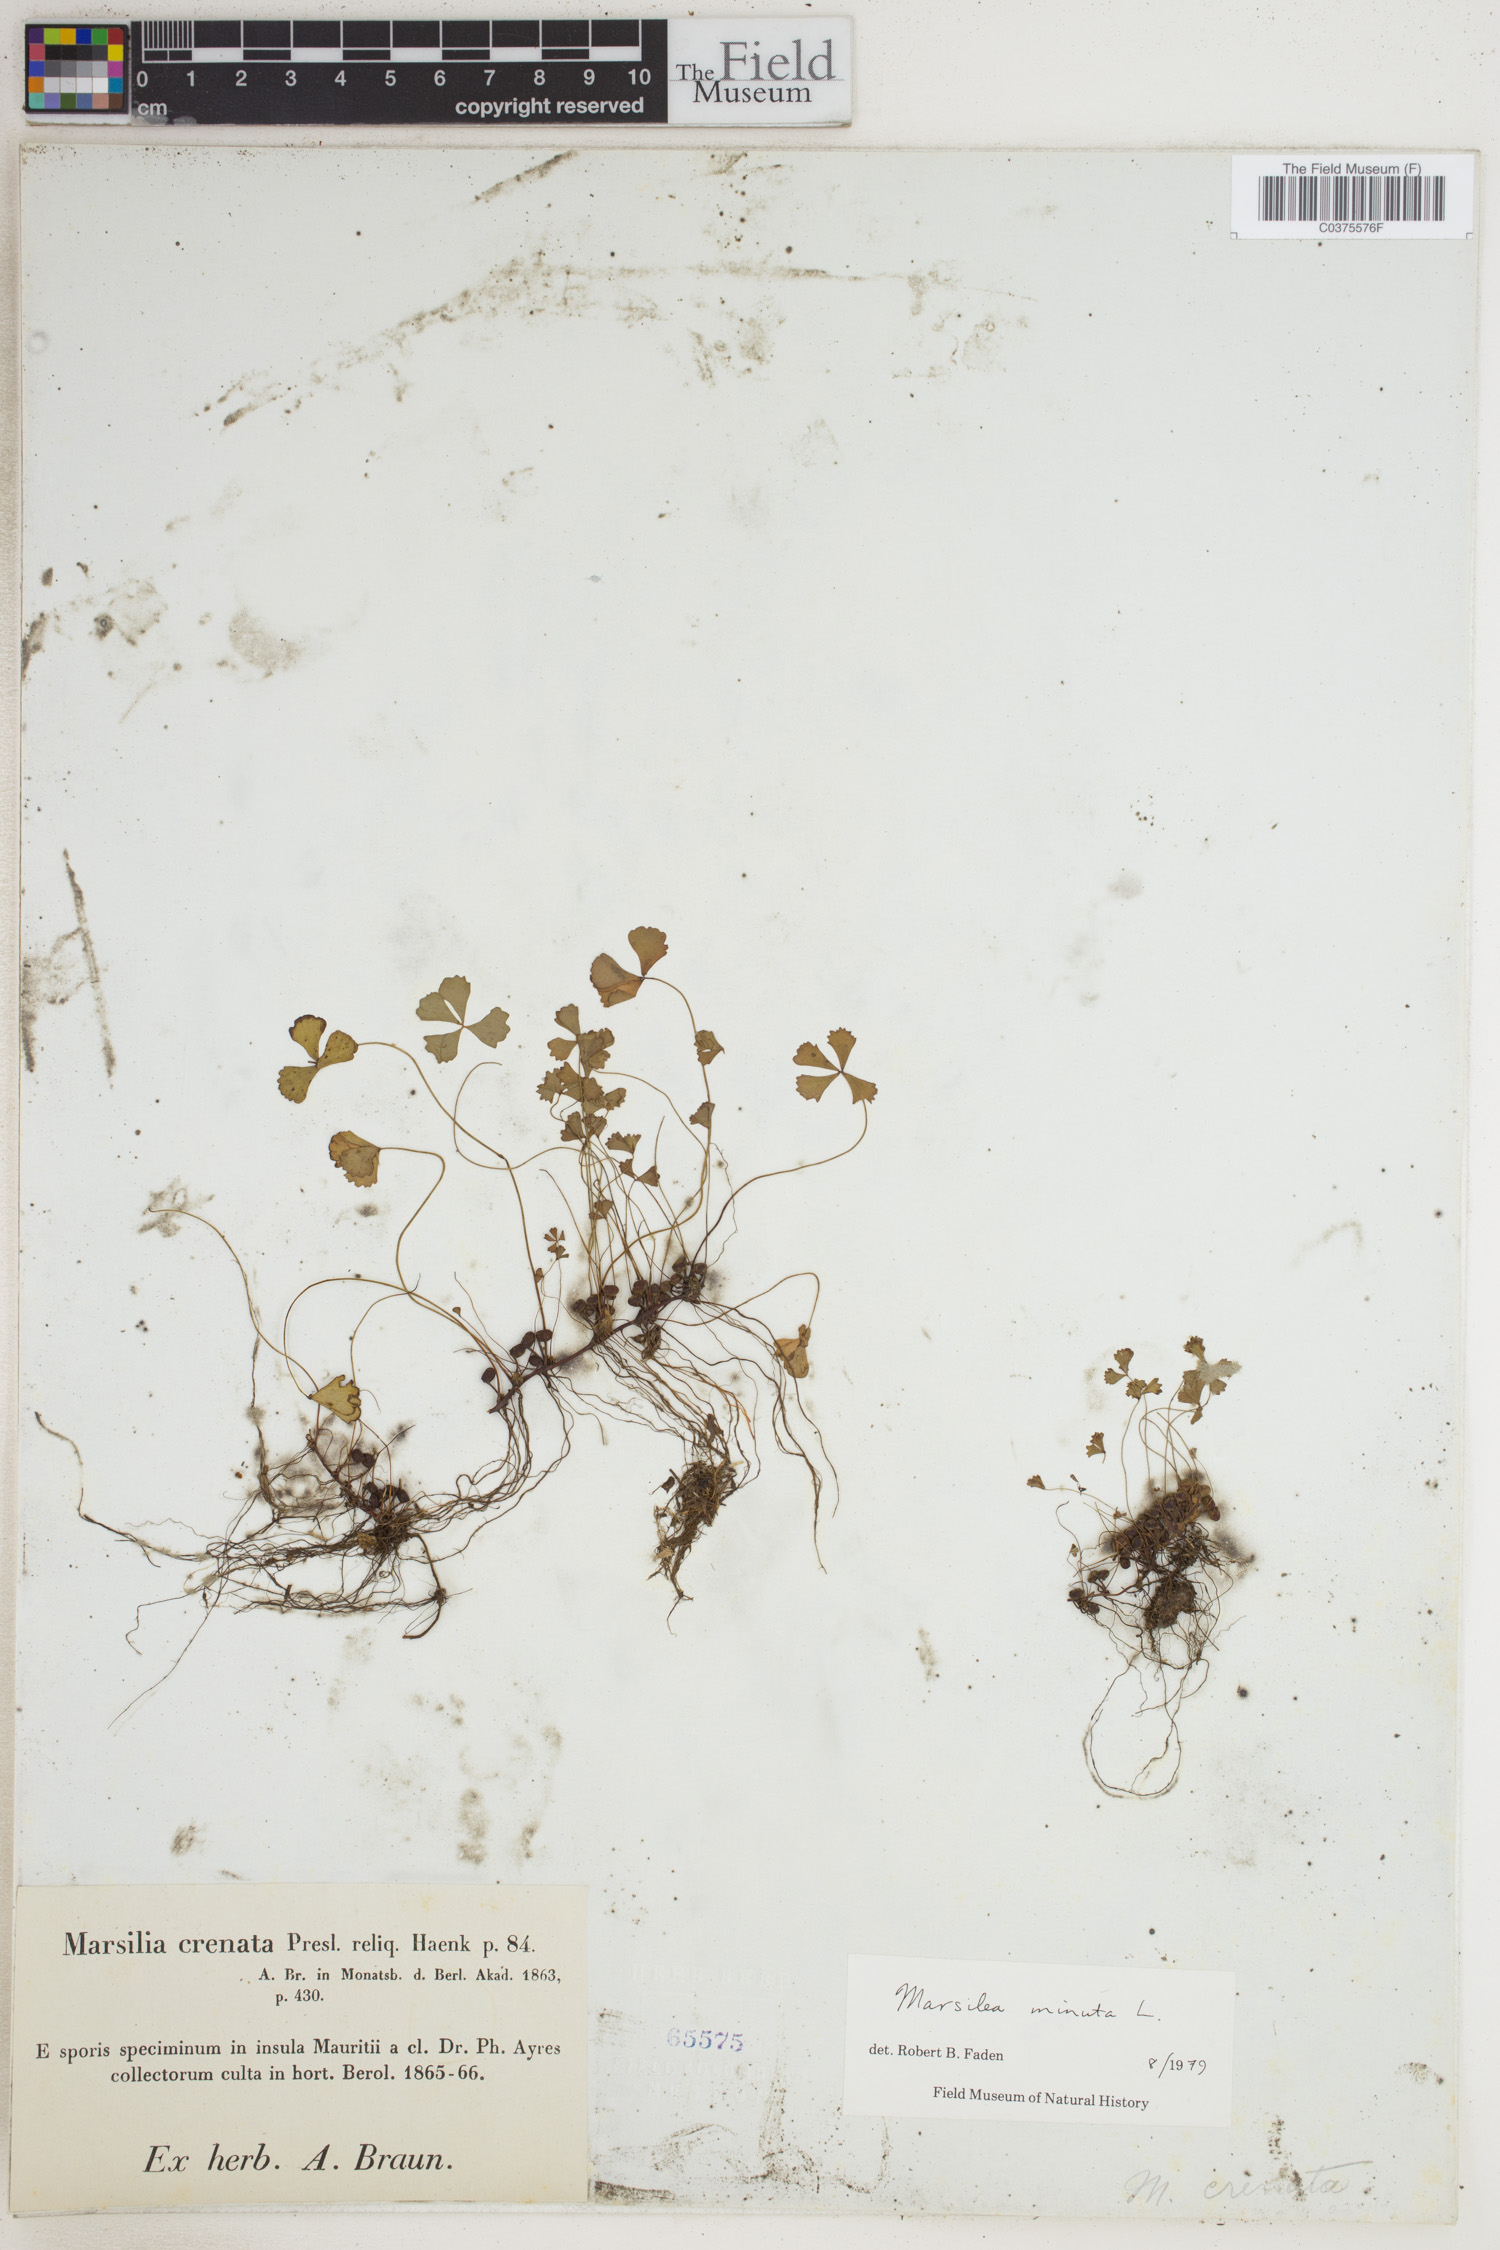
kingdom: Plantae
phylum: Tracheophyta
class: Polypodiopsida
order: Salviniales
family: Marsileaceae
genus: Marsilea
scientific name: Marsilea minuta
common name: Dwarf waterclover
